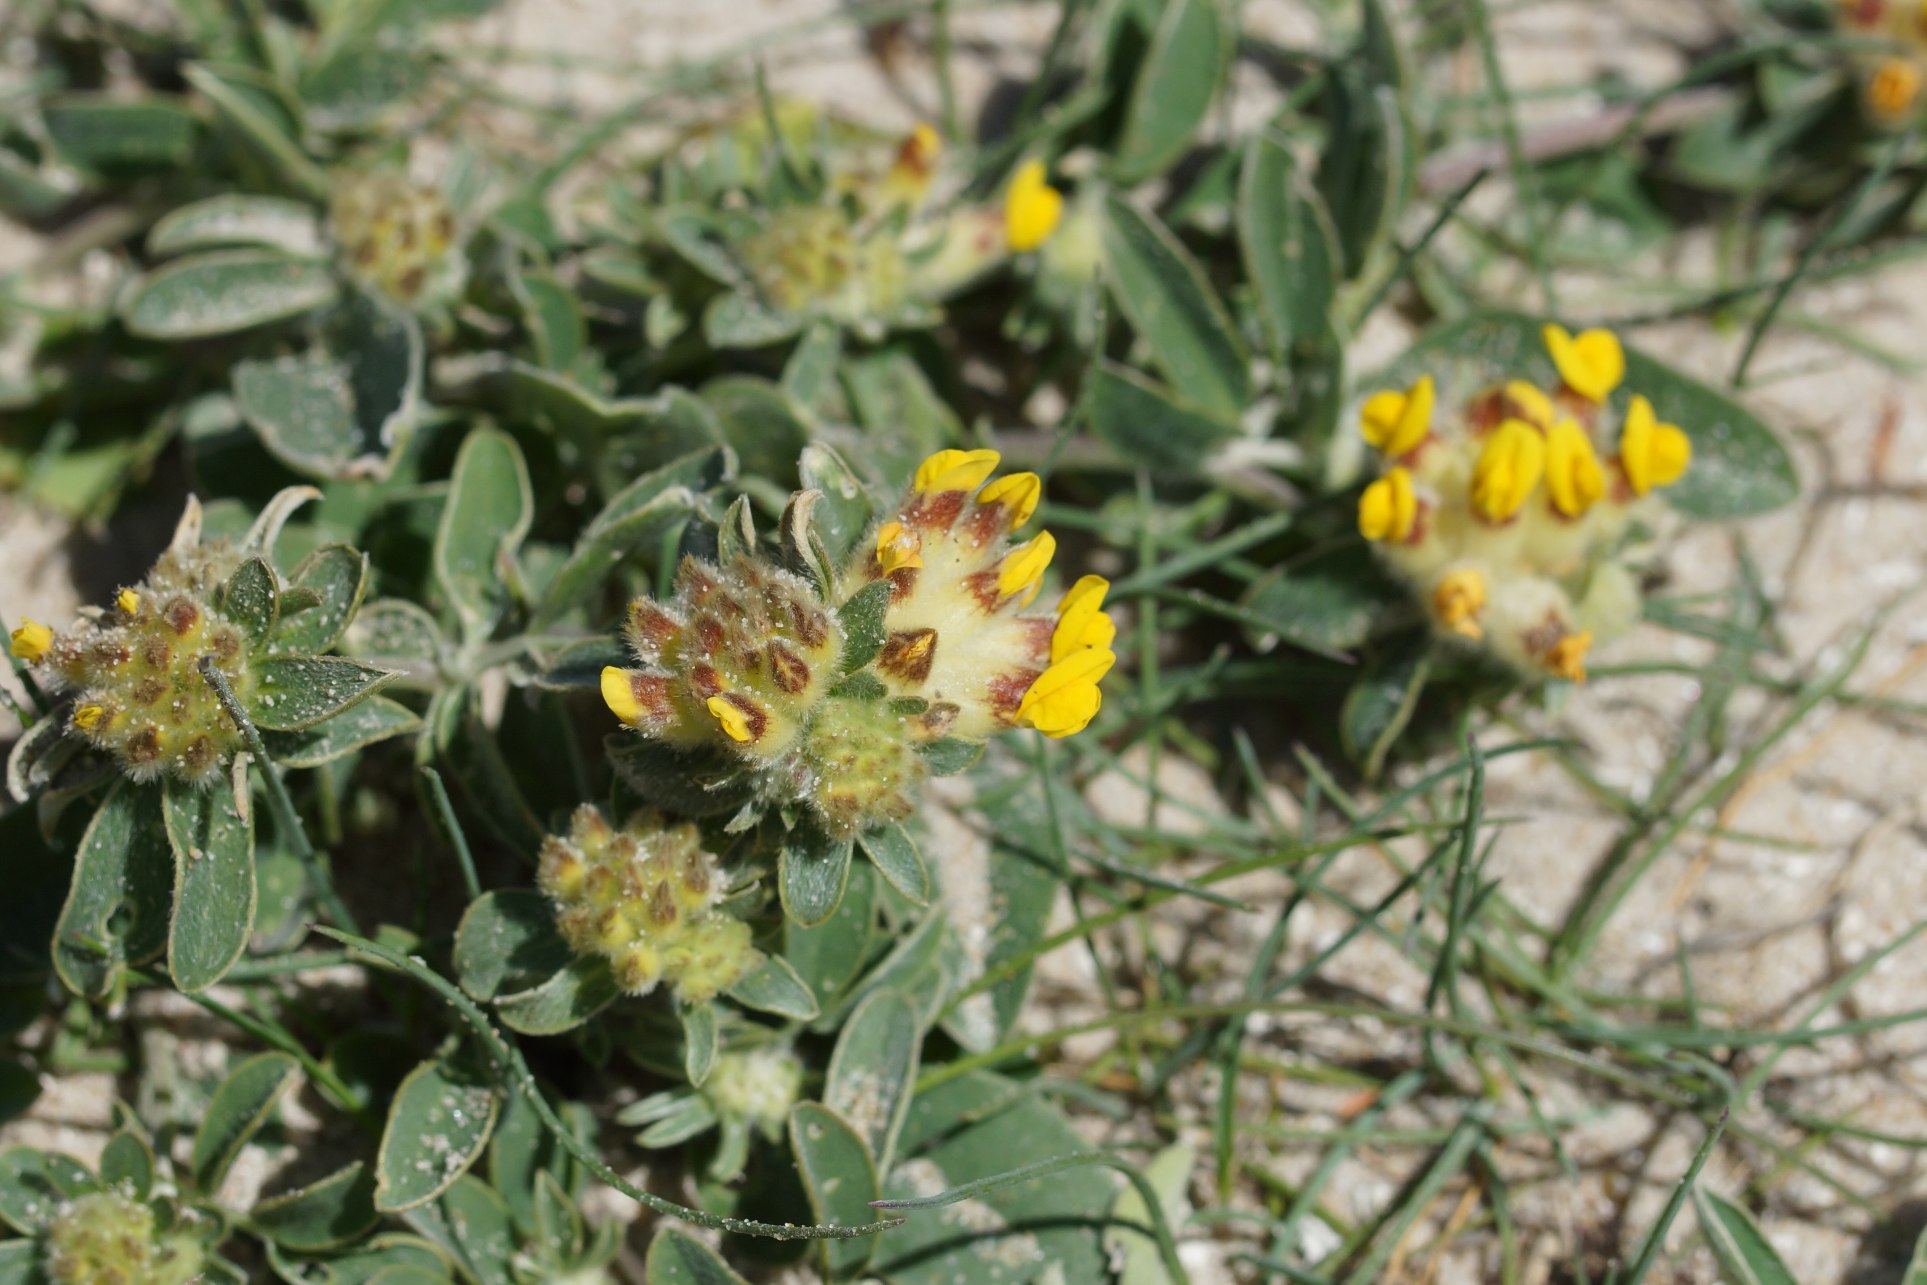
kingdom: Plantae
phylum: Tracheophyta
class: Magnoliopsida
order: Fabales
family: Fabaceae
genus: Anthyllis
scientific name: Anthyllis vulneraria
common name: Rundbælg
